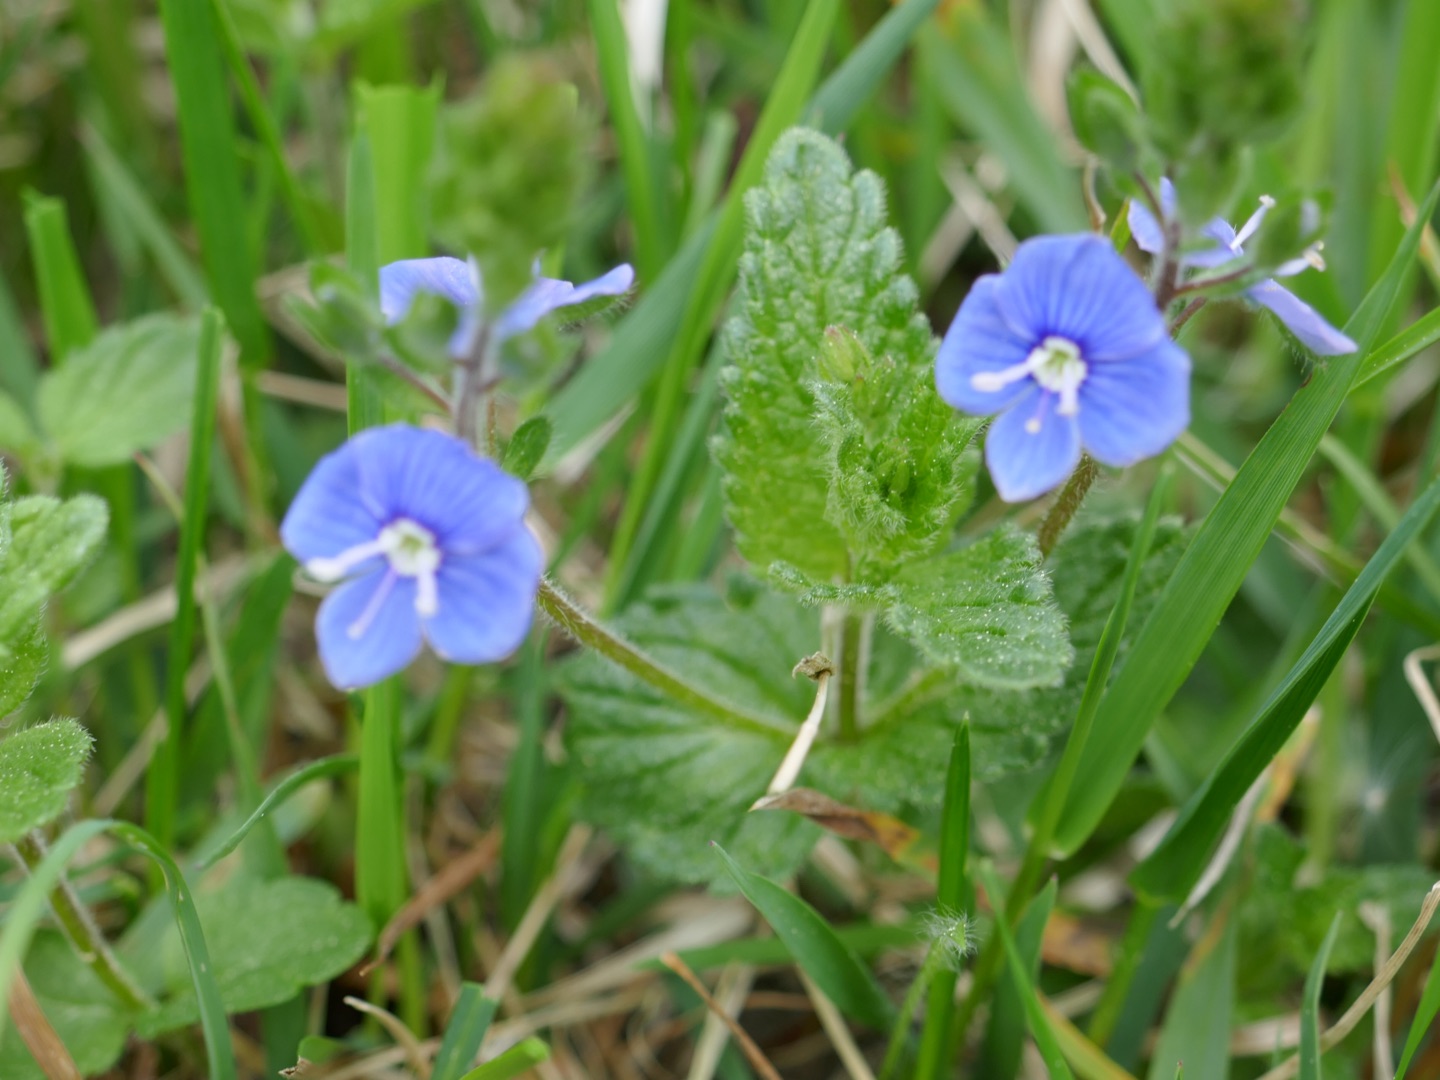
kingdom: Plantae
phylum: Tracheophyta
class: Magnoliopsida
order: Lamiales
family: Plantaginaceae
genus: Veronica
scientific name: Veronica chamaedrys
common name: Tveskægget ærenpris
